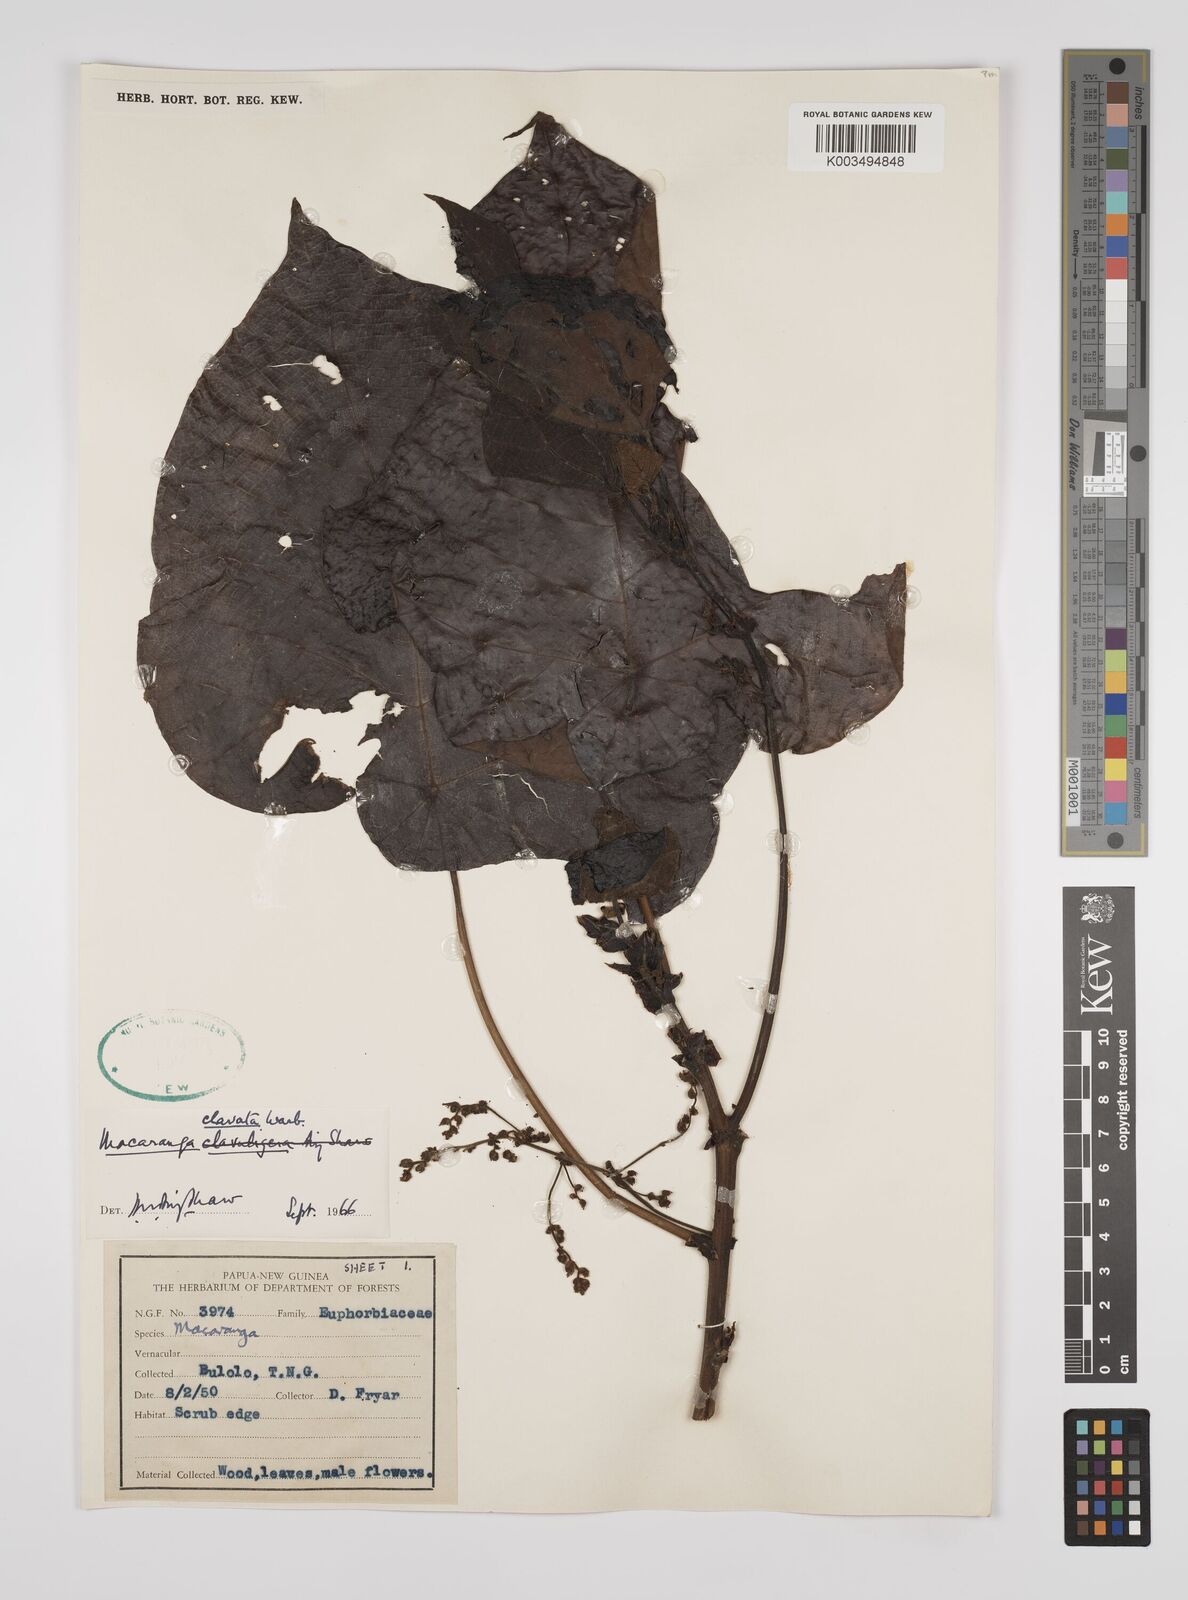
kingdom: Plantae
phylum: Tracheophyta
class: Magnoliopsida
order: Malpighiales
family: Euphorbiaceae
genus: Macaranga
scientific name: Macaranga clavata
